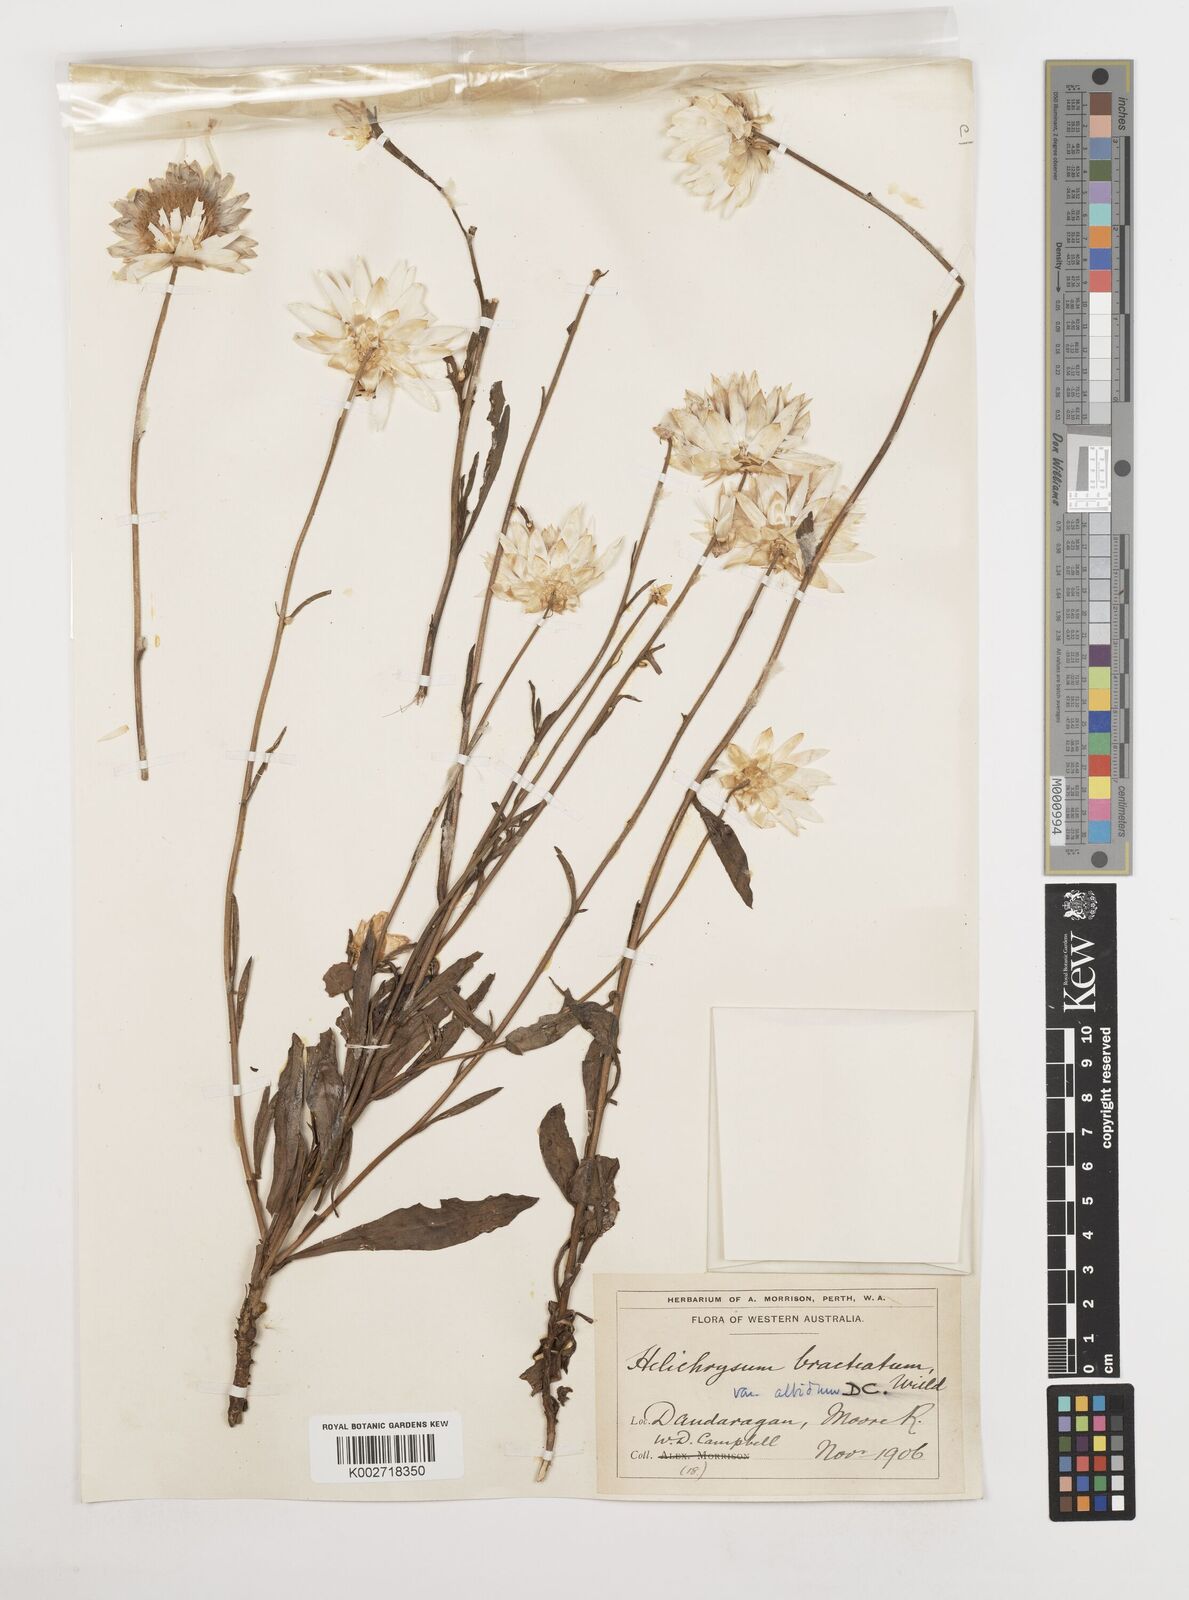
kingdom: Plantae
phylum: Tracheophyta
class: Magnoliopsida
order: Asterales
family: Asteraceae
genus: Xerochrysum
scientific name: Xerochrysum bracteatum
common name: Bracted strawflower
